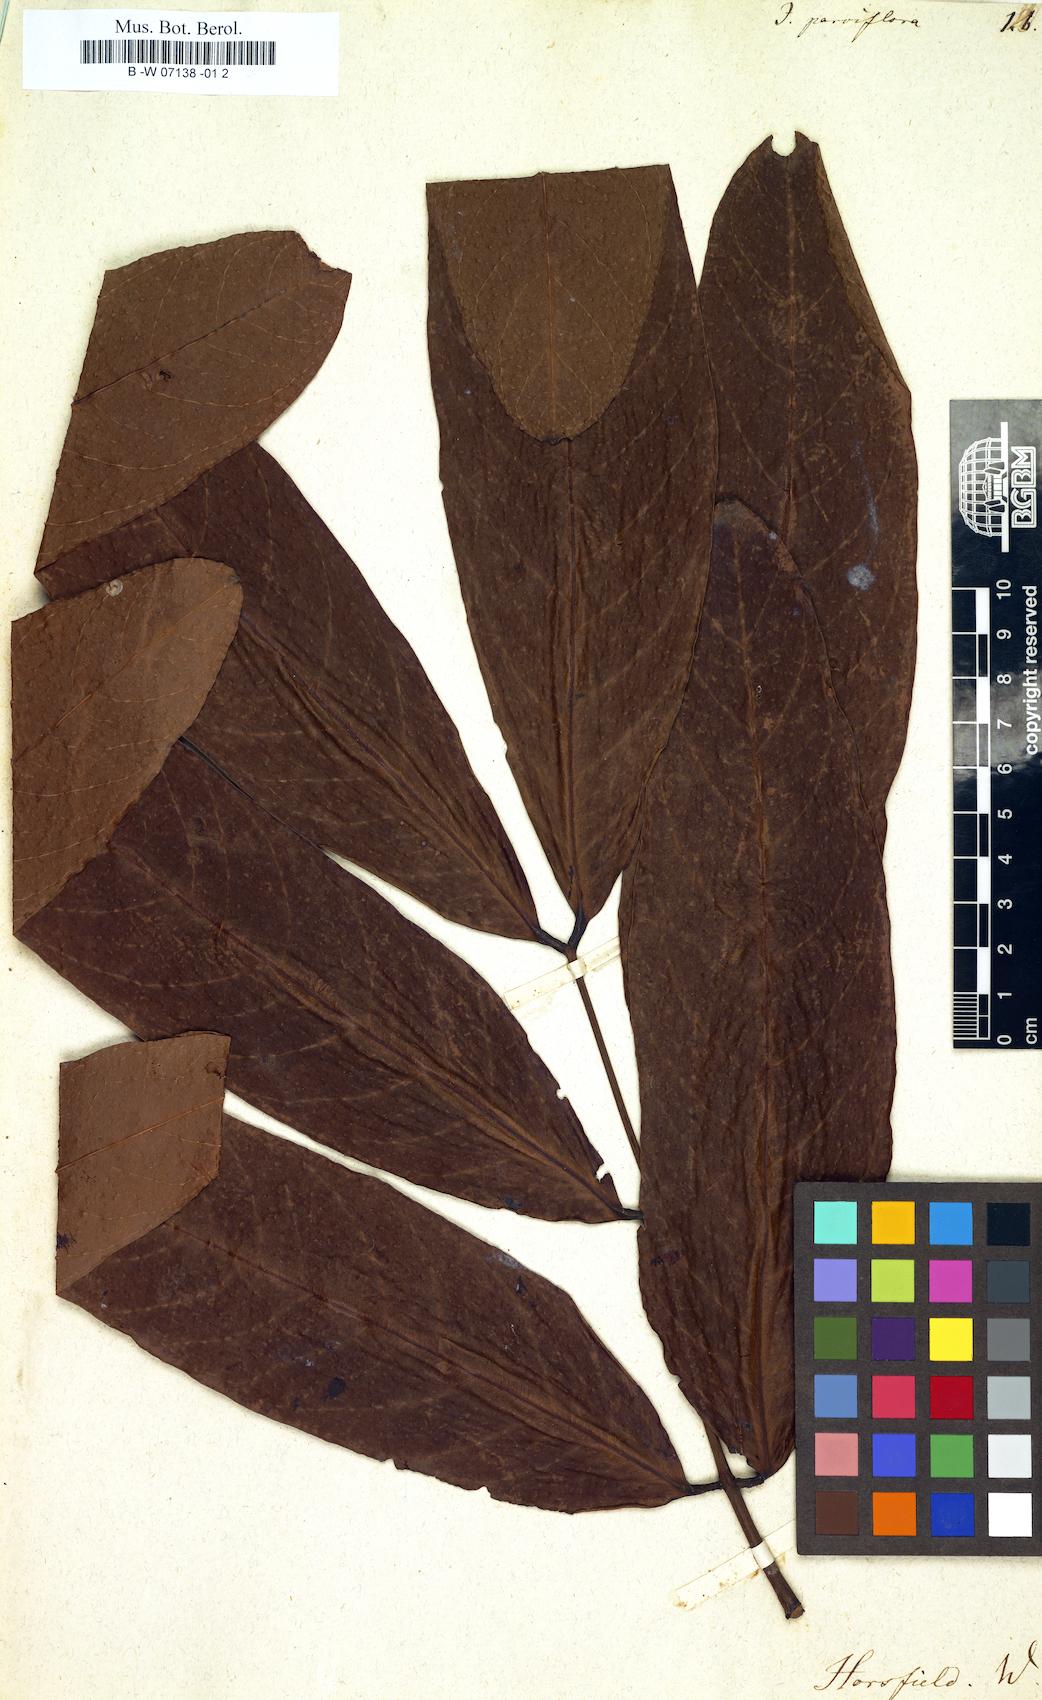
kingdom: Plantae
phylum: Bryophyta
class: Bryopsida
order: Funariales
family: Funariaceae
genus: Jonesia
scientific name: Jonesia
